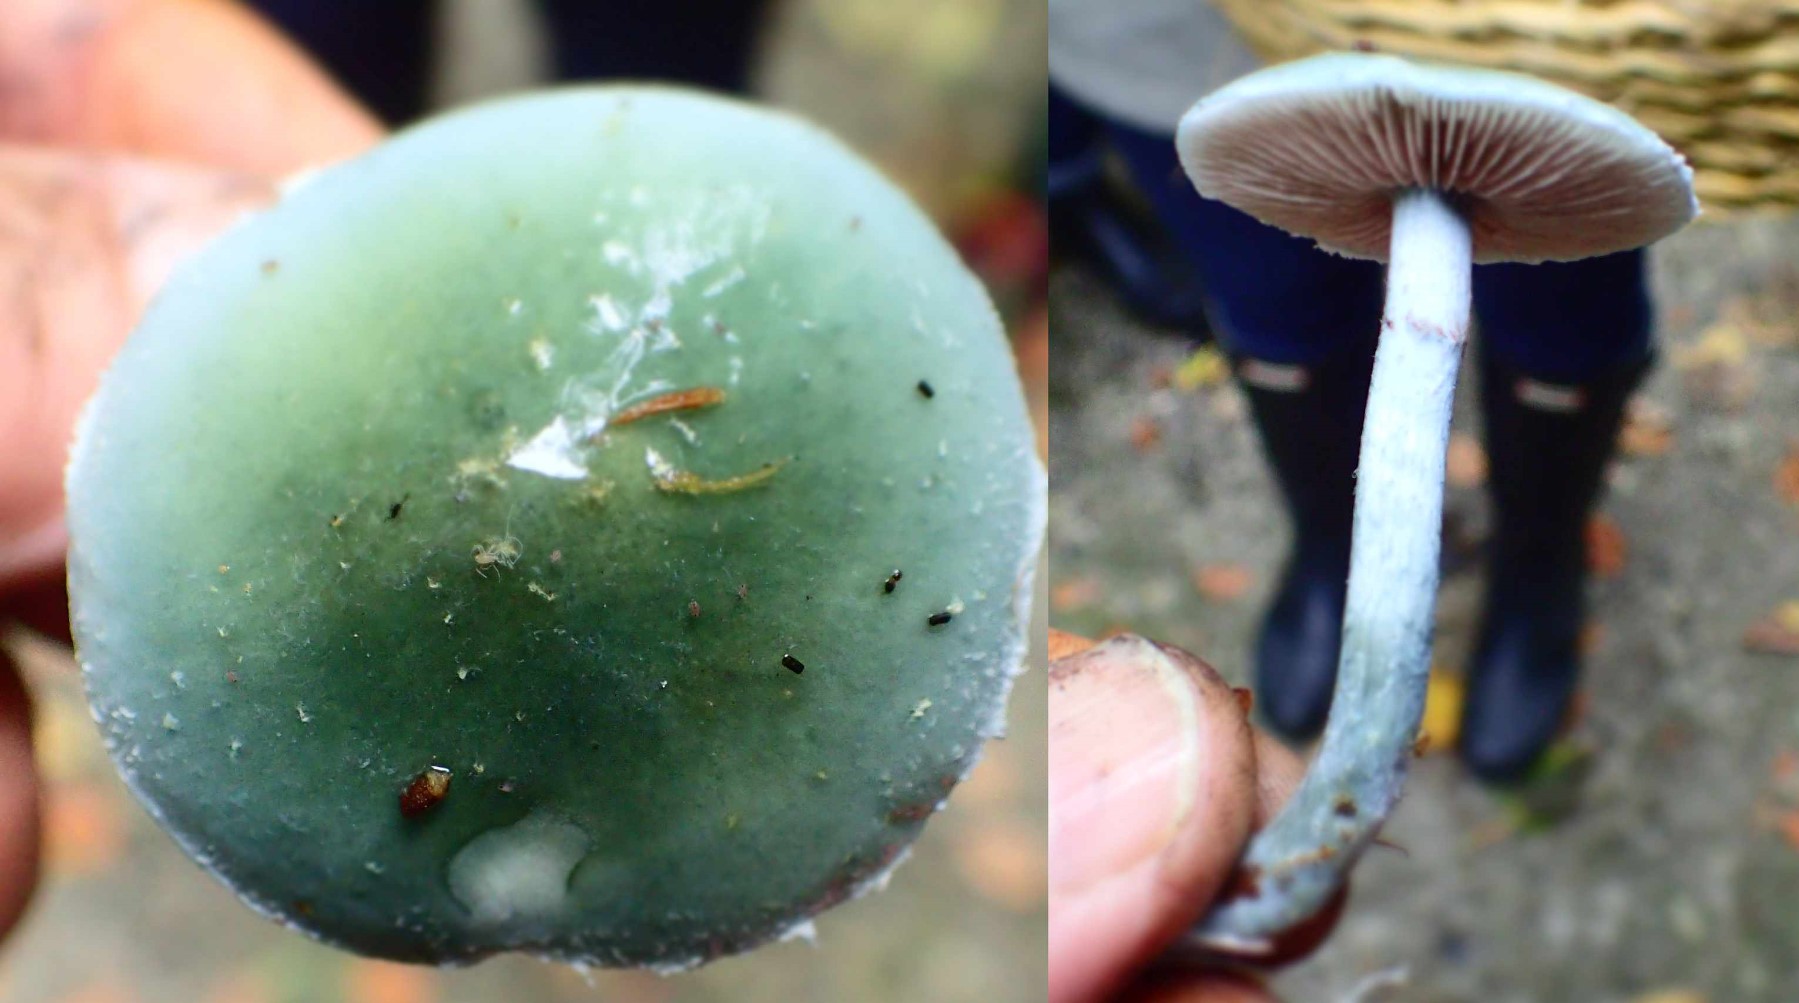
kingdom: Fungi
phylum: Basidiomycota
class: Agaricomycetes
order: Agaricales
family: Strophariaceae
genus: Stropharia
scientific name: Stropharia aeruginosa
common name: spanskgrøn bredblad
